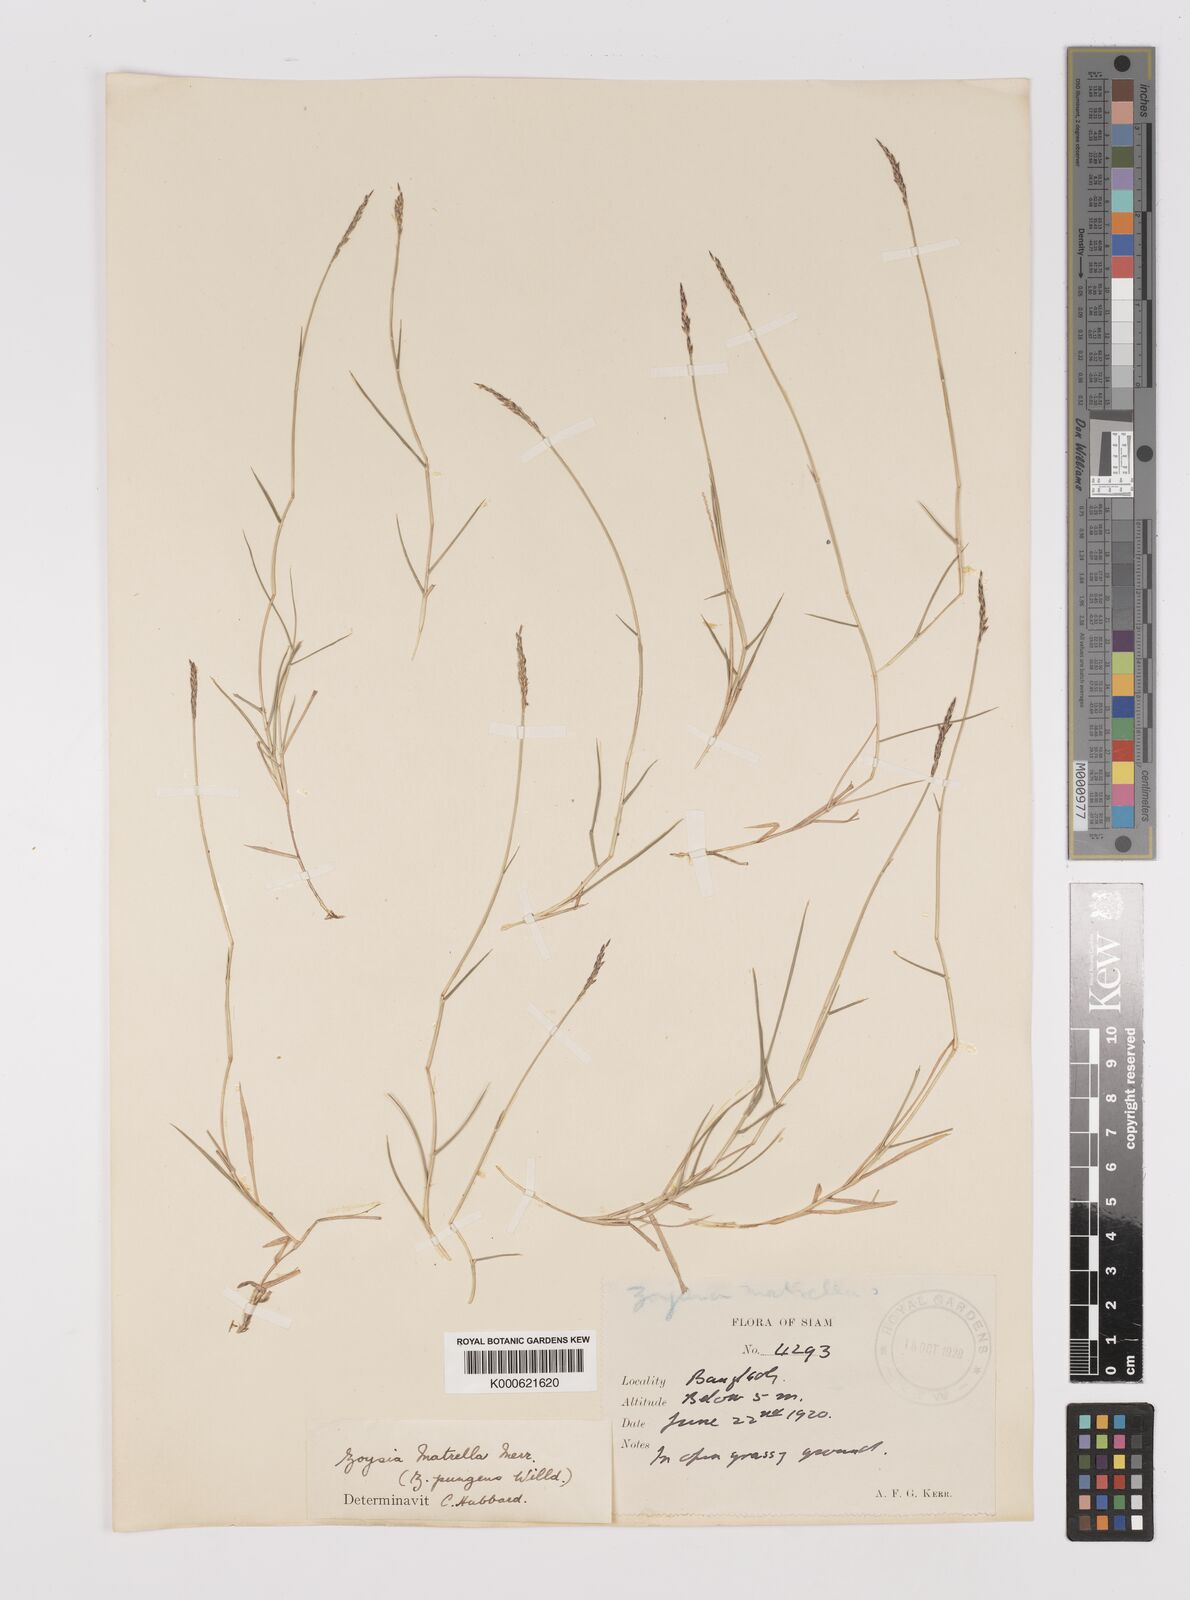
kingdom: Plantae
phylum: Tracheophyta
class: Liliopsida
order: Poales
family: Poaceae
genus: Zoysia
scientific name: Zoysia matrella
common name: Manila grass
